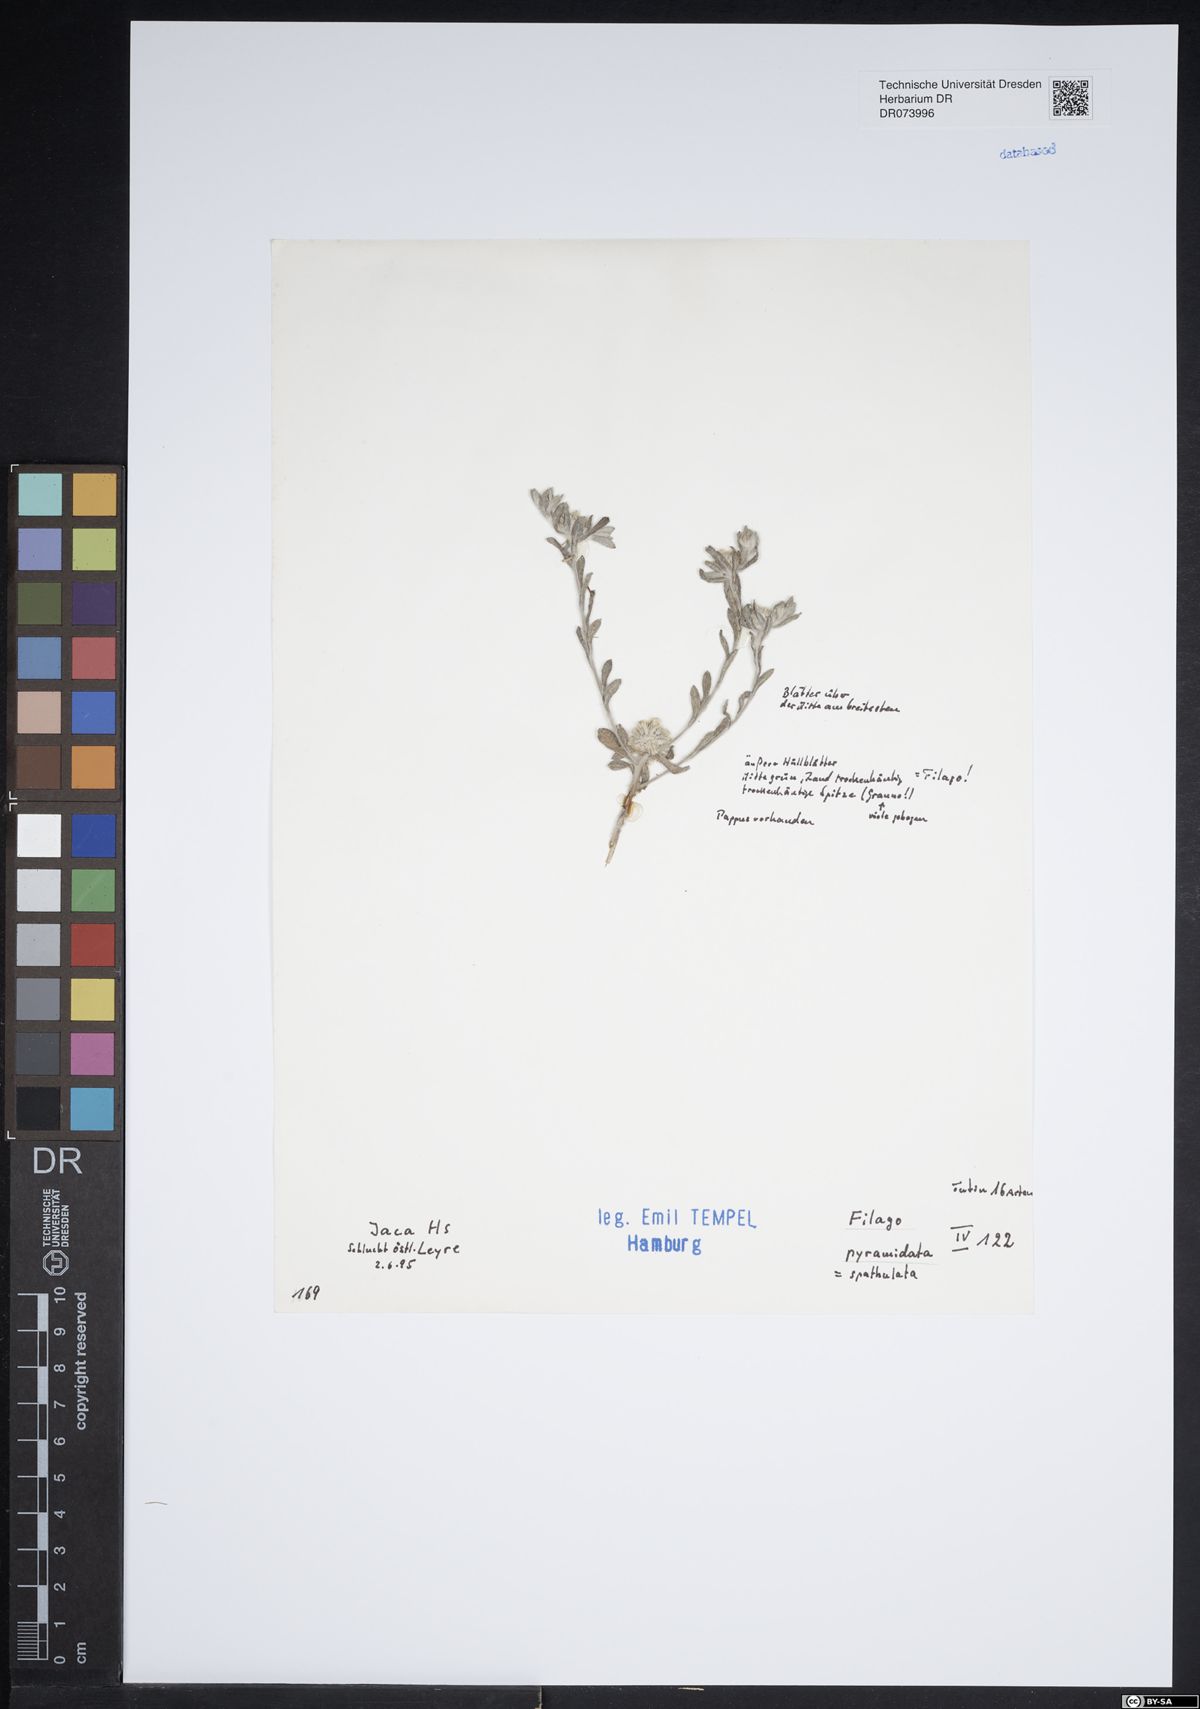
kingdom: Plantae
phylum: Tracheophyta
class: Magnoliopsida
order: Asterales
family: Asteraceae
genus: Filago
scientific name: Filago pyramidata
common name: Broad-leaved cudweed
